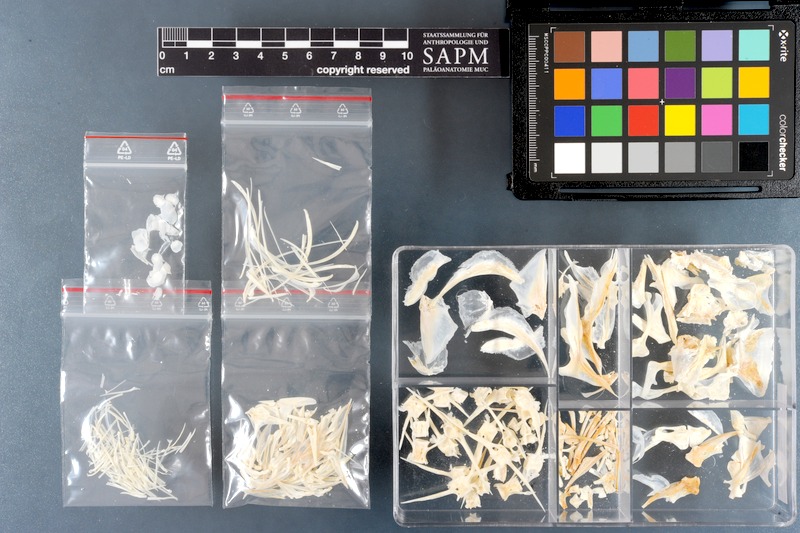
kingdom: Animalia
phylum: Chordata
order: Perciformes
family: Carangidae
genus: Gnathanodon
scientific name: Gnathanodon speciosus
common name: Golden toothless trevally
